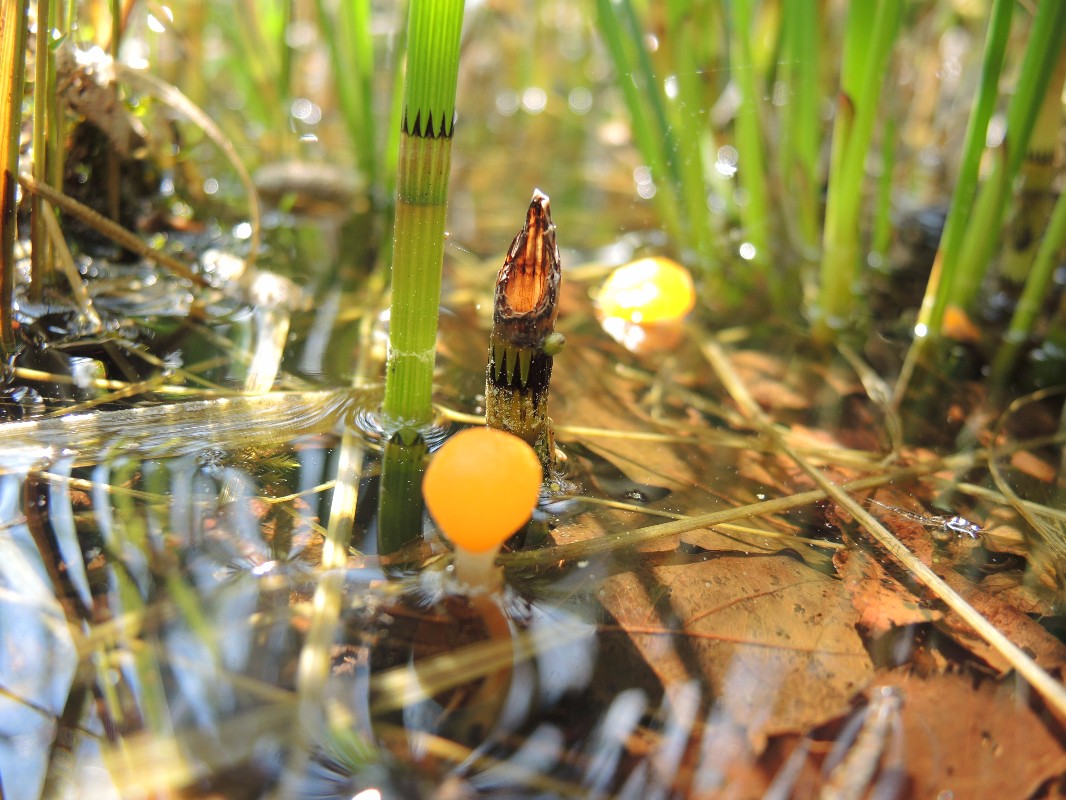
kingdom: Fungi
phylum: Ascomycota
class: Leotiomycetes
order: Helotiales
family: Cenangiaceae
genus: Mitrula
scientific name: Mitrula paludosa
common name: gul nøkketunge
